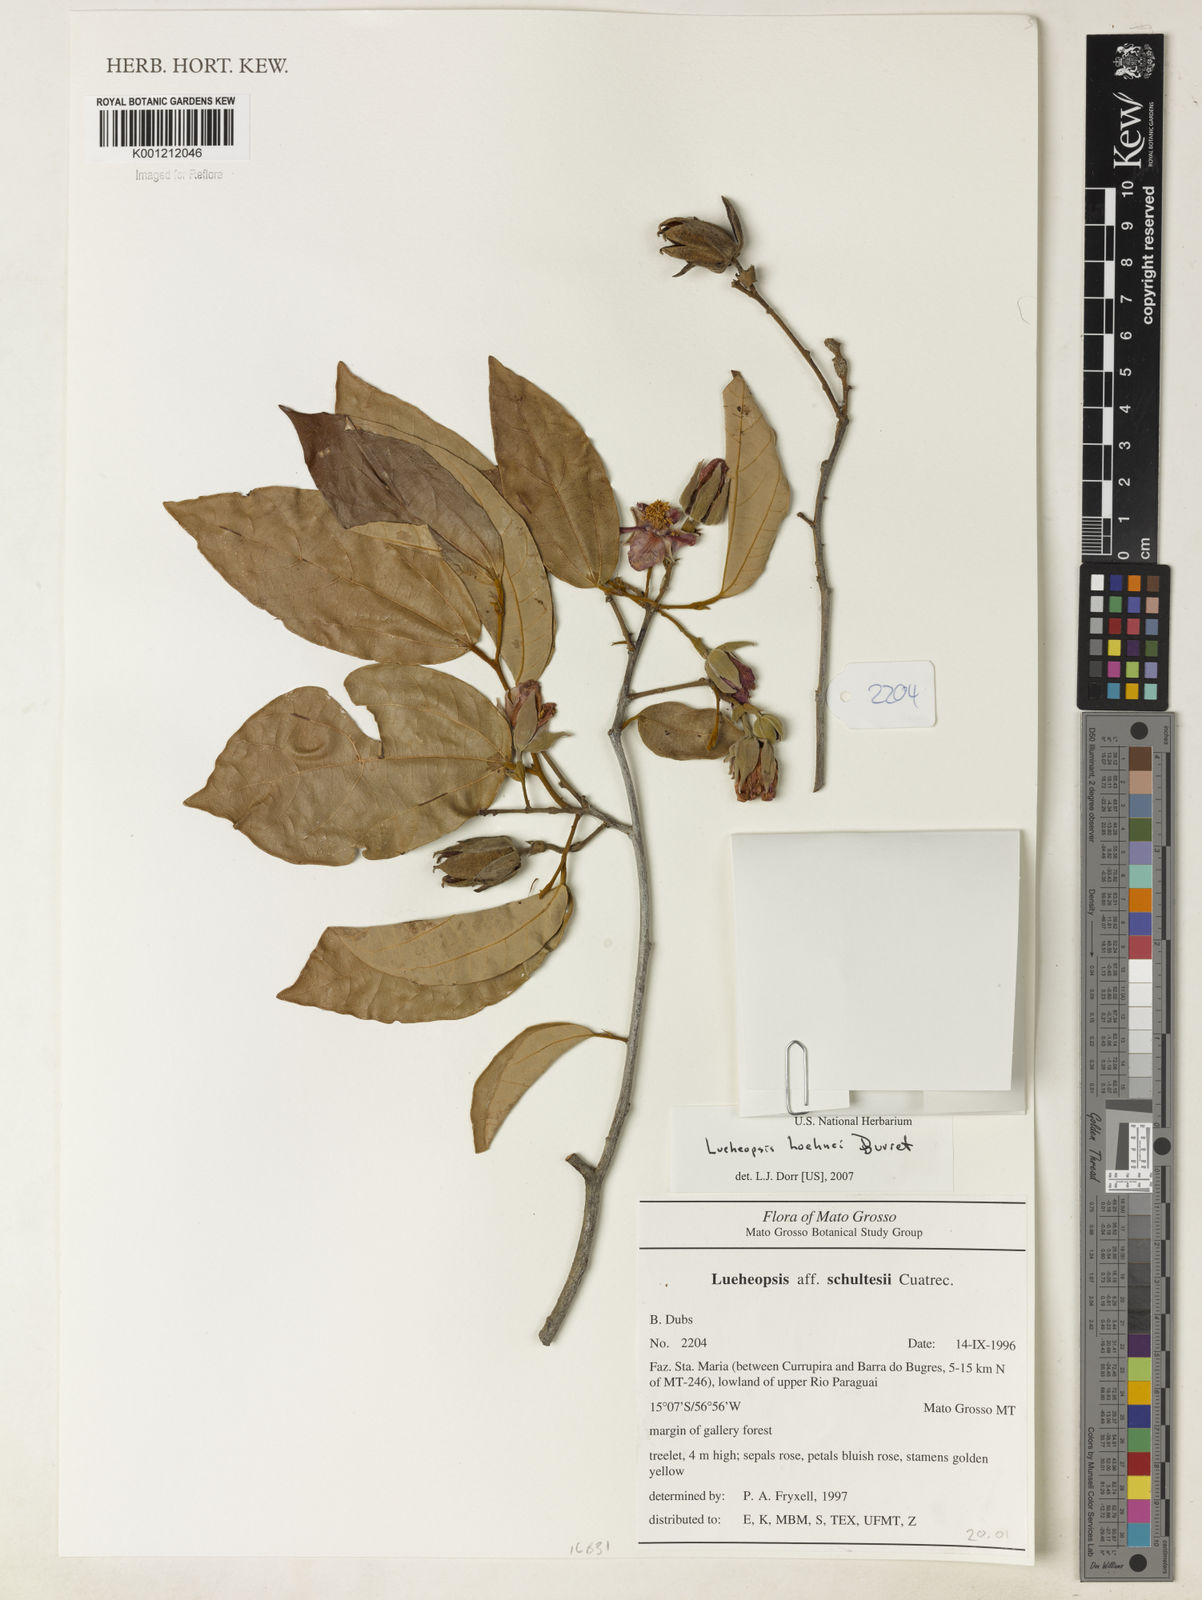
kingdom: Plantae
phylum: Tracheophyta
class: Magnoliopsida
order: Malvales
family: Malvaceae
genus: Lueheopsis
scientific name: Lueheopsis hoehnei
